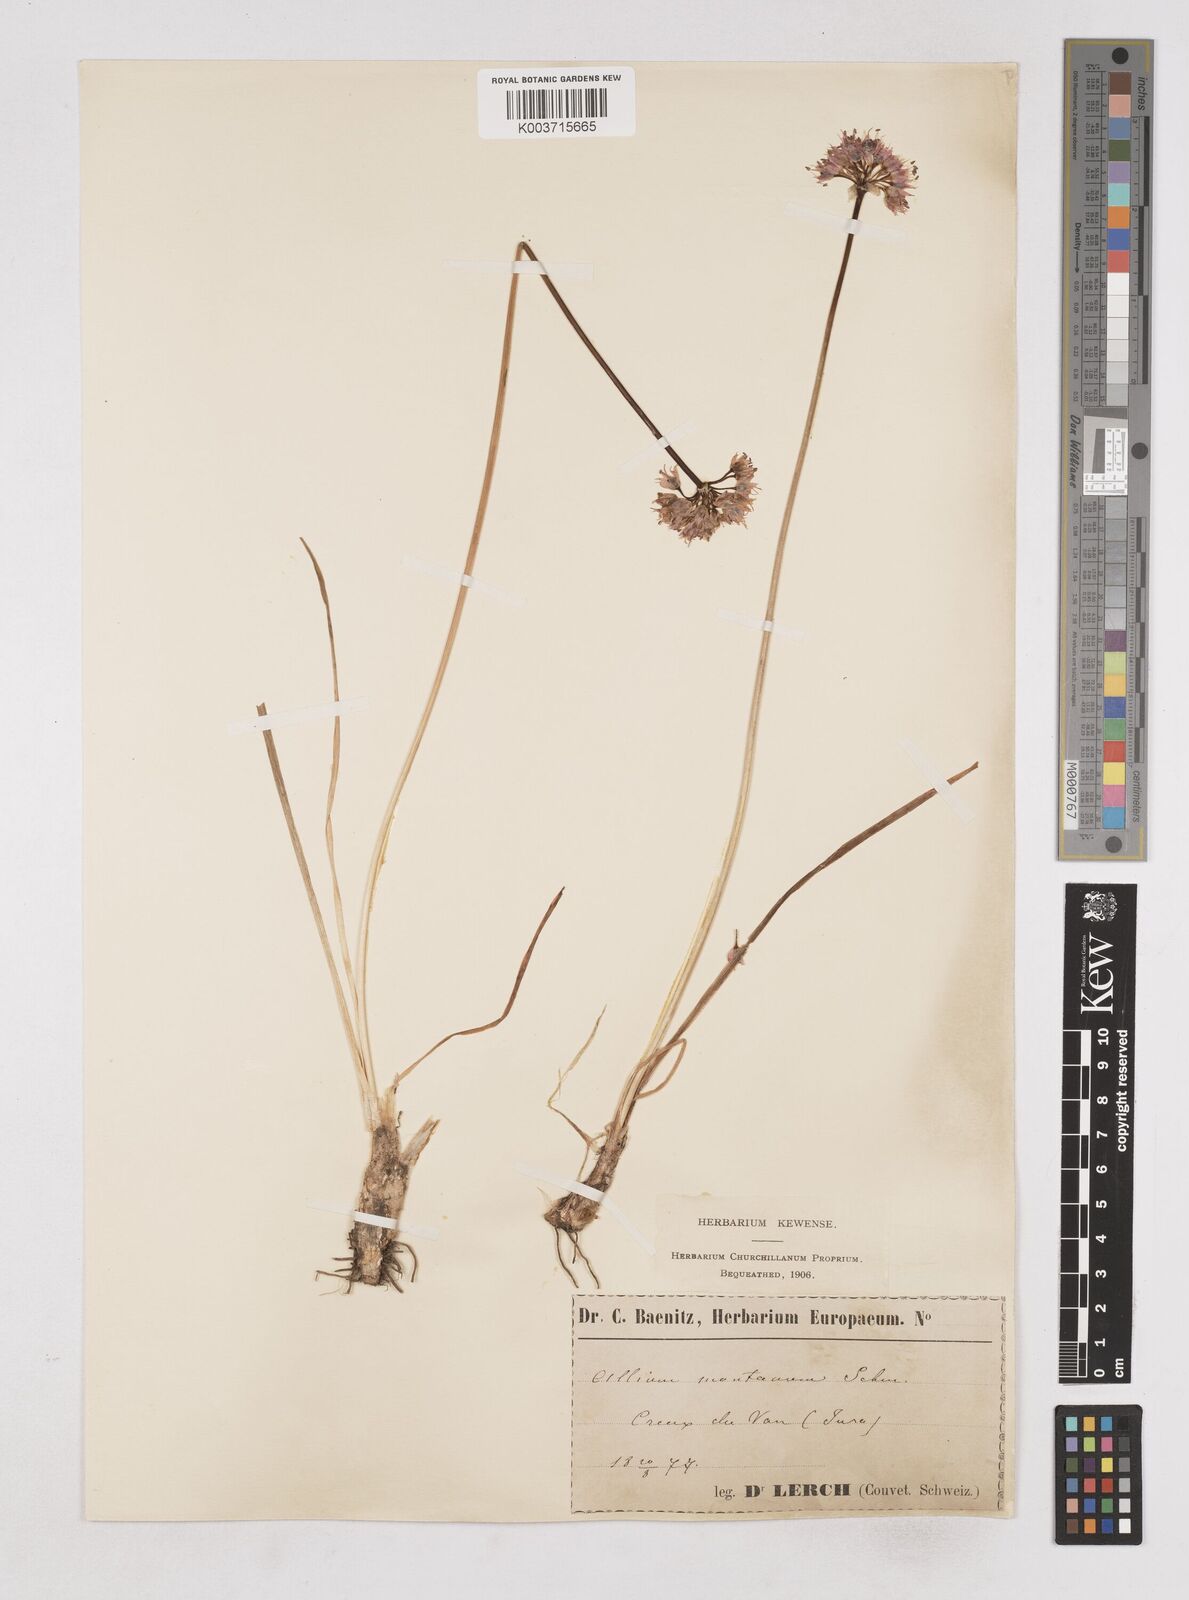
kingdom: Plantae
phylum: Tracheophyta
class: Liliopsida
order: Asparagales
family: Amaryllidaceae
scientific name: Amaryllidaceae
